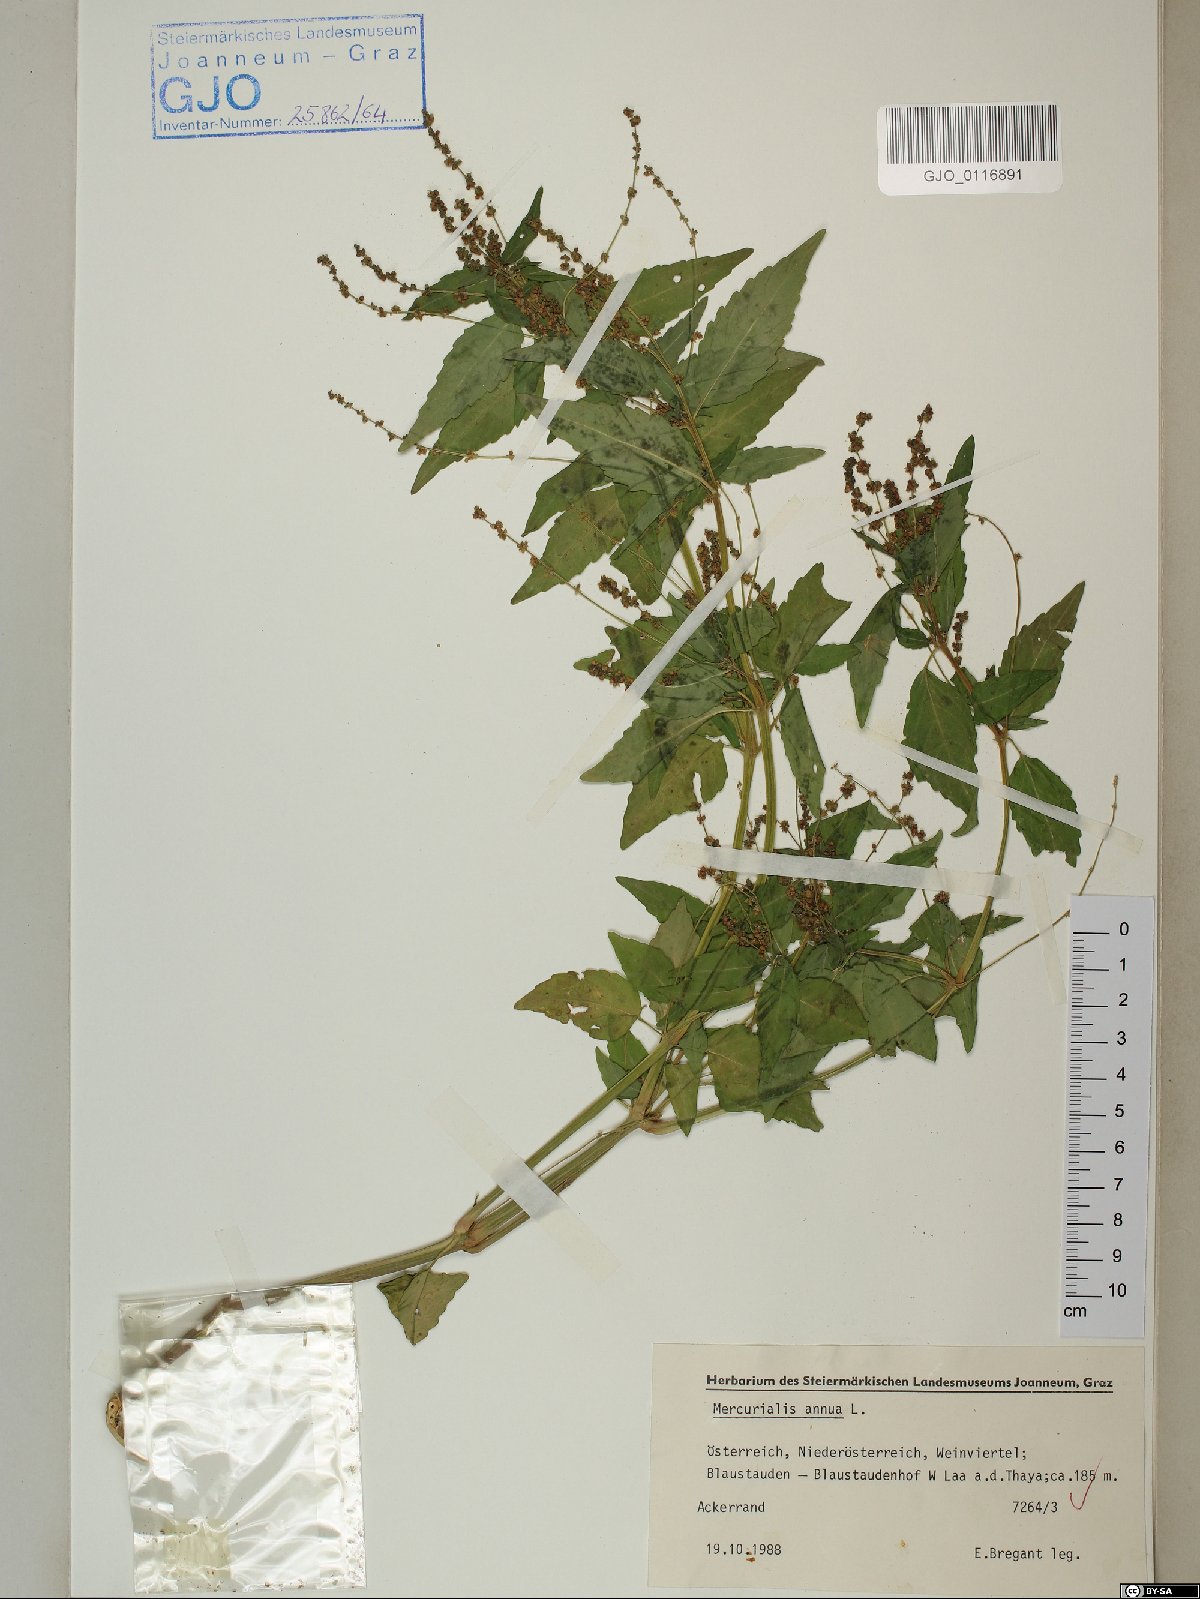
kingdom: Plantae
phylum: Tracheophyta
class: Magnoliopsida
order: Malpighiales
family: Euphorbiaceae
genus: Mercurialis
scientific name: Mercurialis annua
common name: Annual mercury
